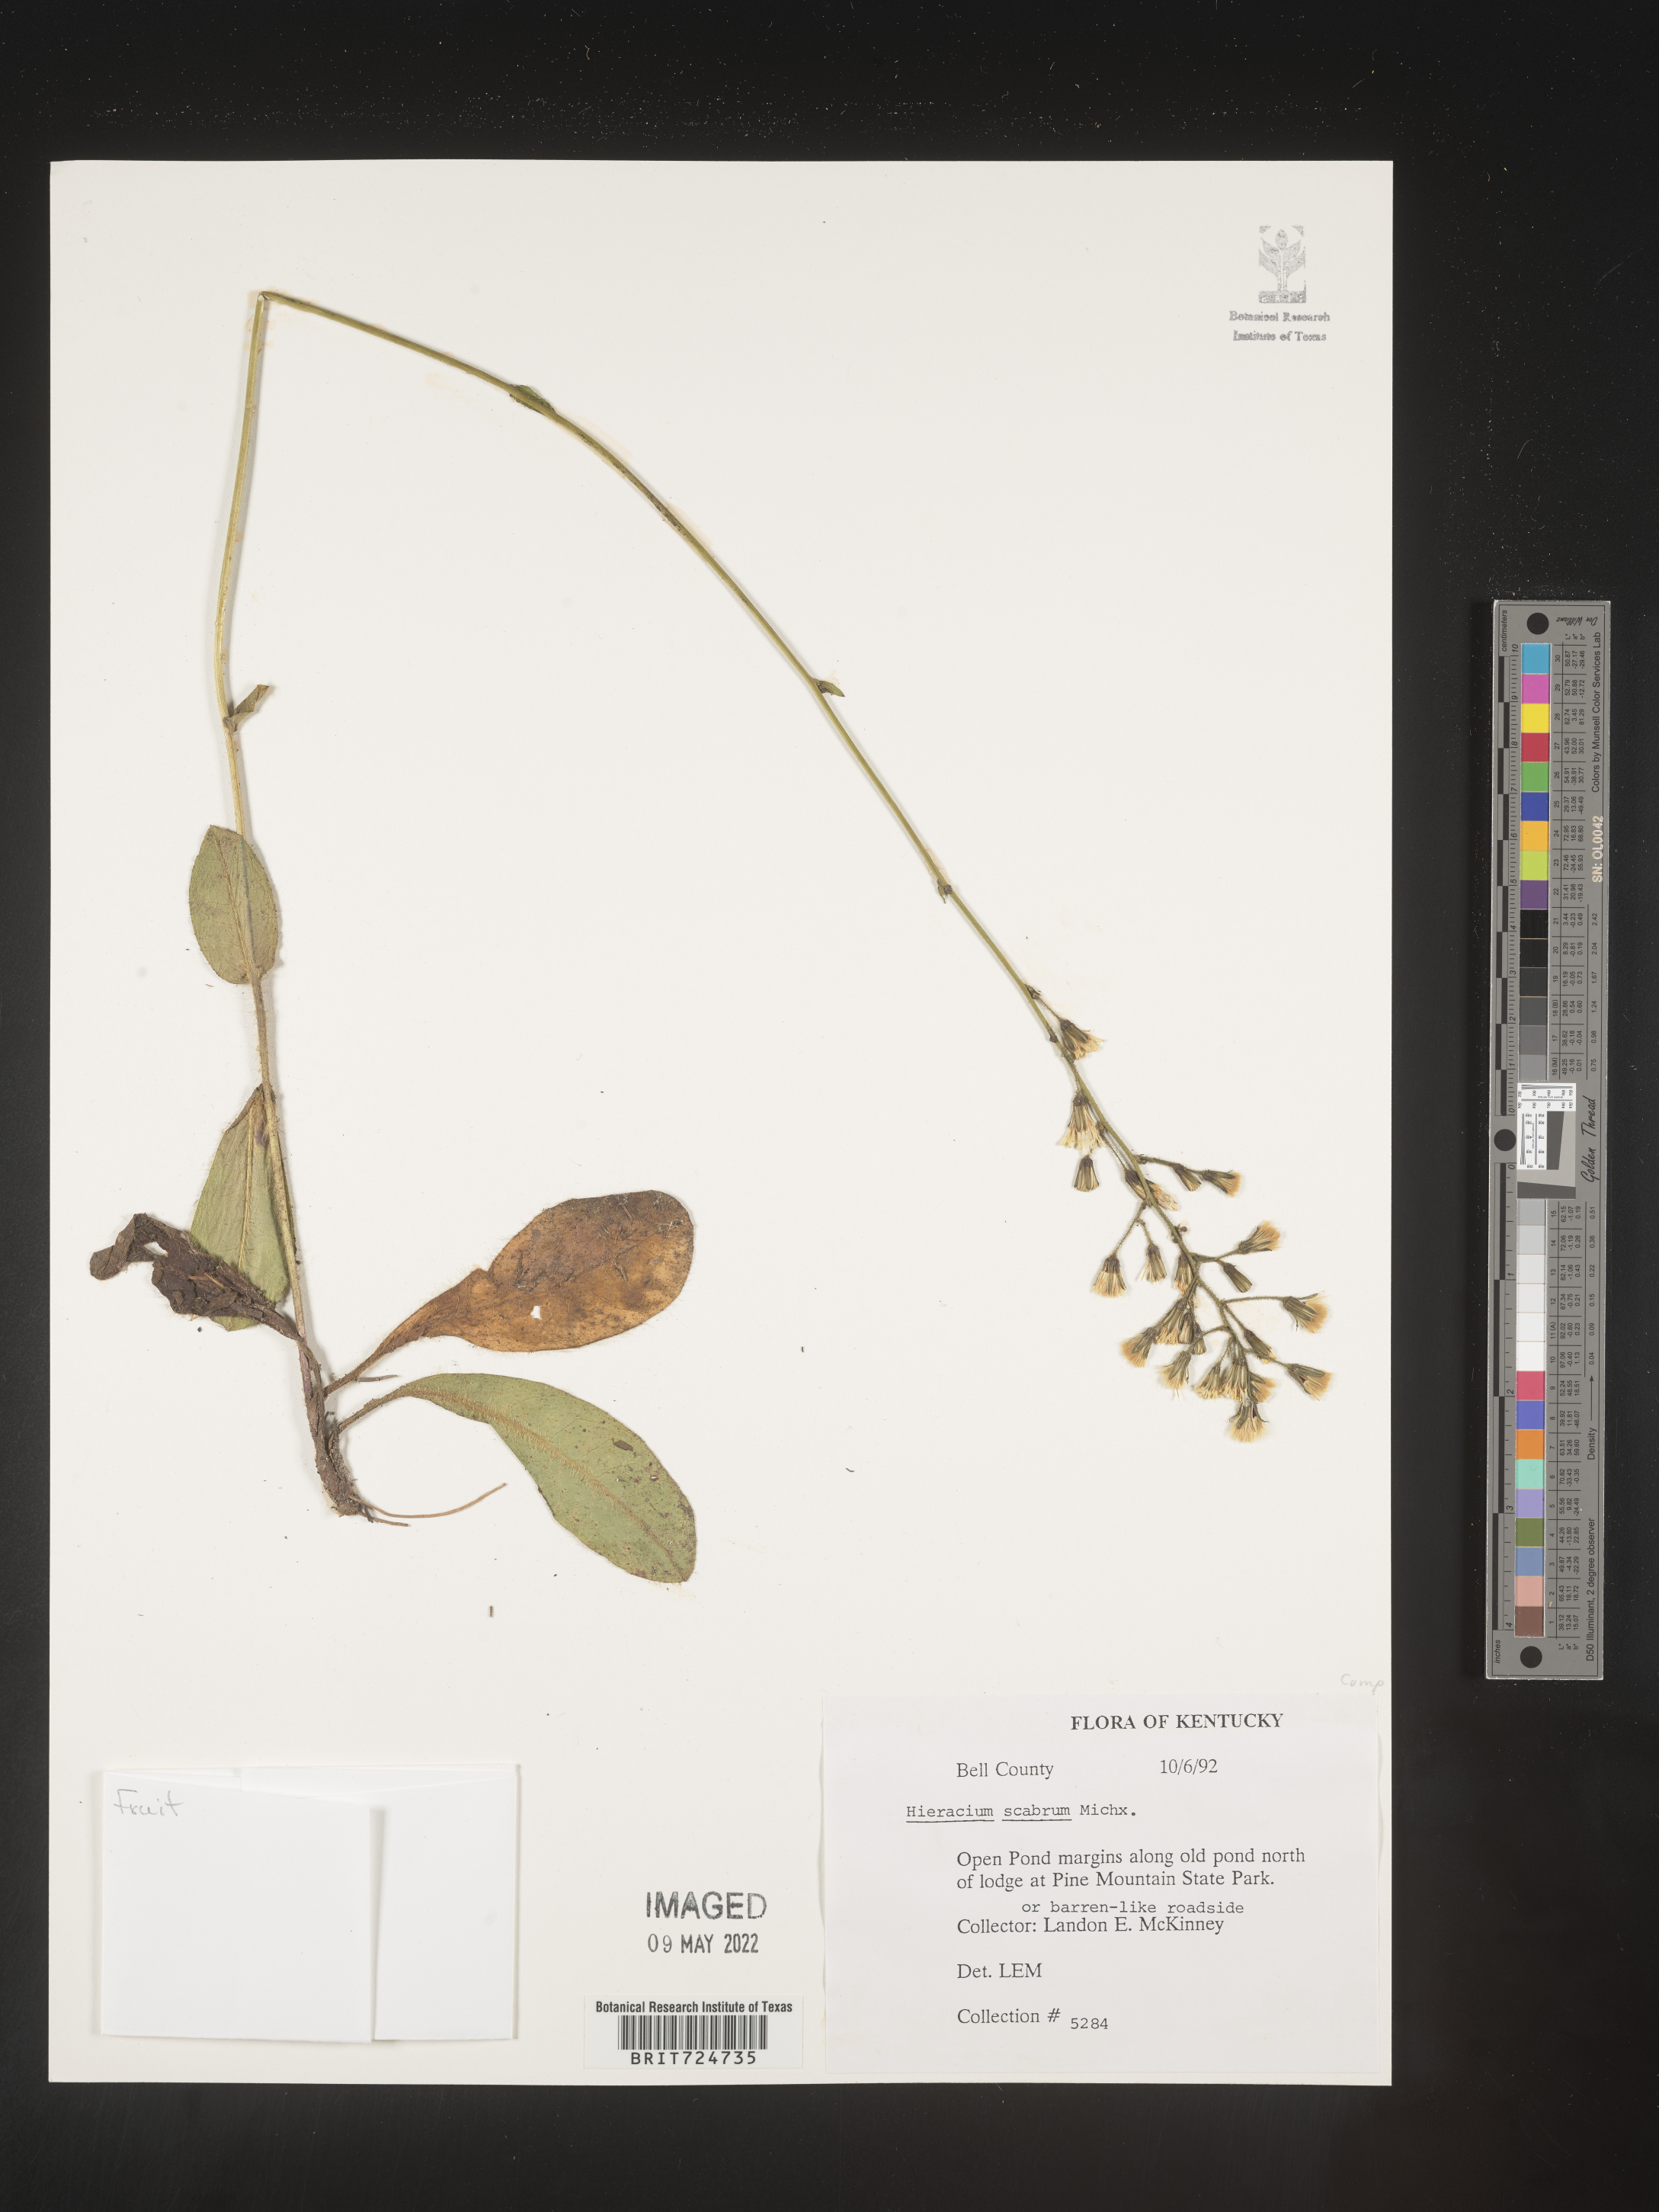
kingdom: Plantae
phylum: Tracheophyta
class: Magnoliopsida
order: Asterales
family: Asteraceae
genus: Hieracium
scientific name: Hieracium scabrum
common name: Rough hawkweed
